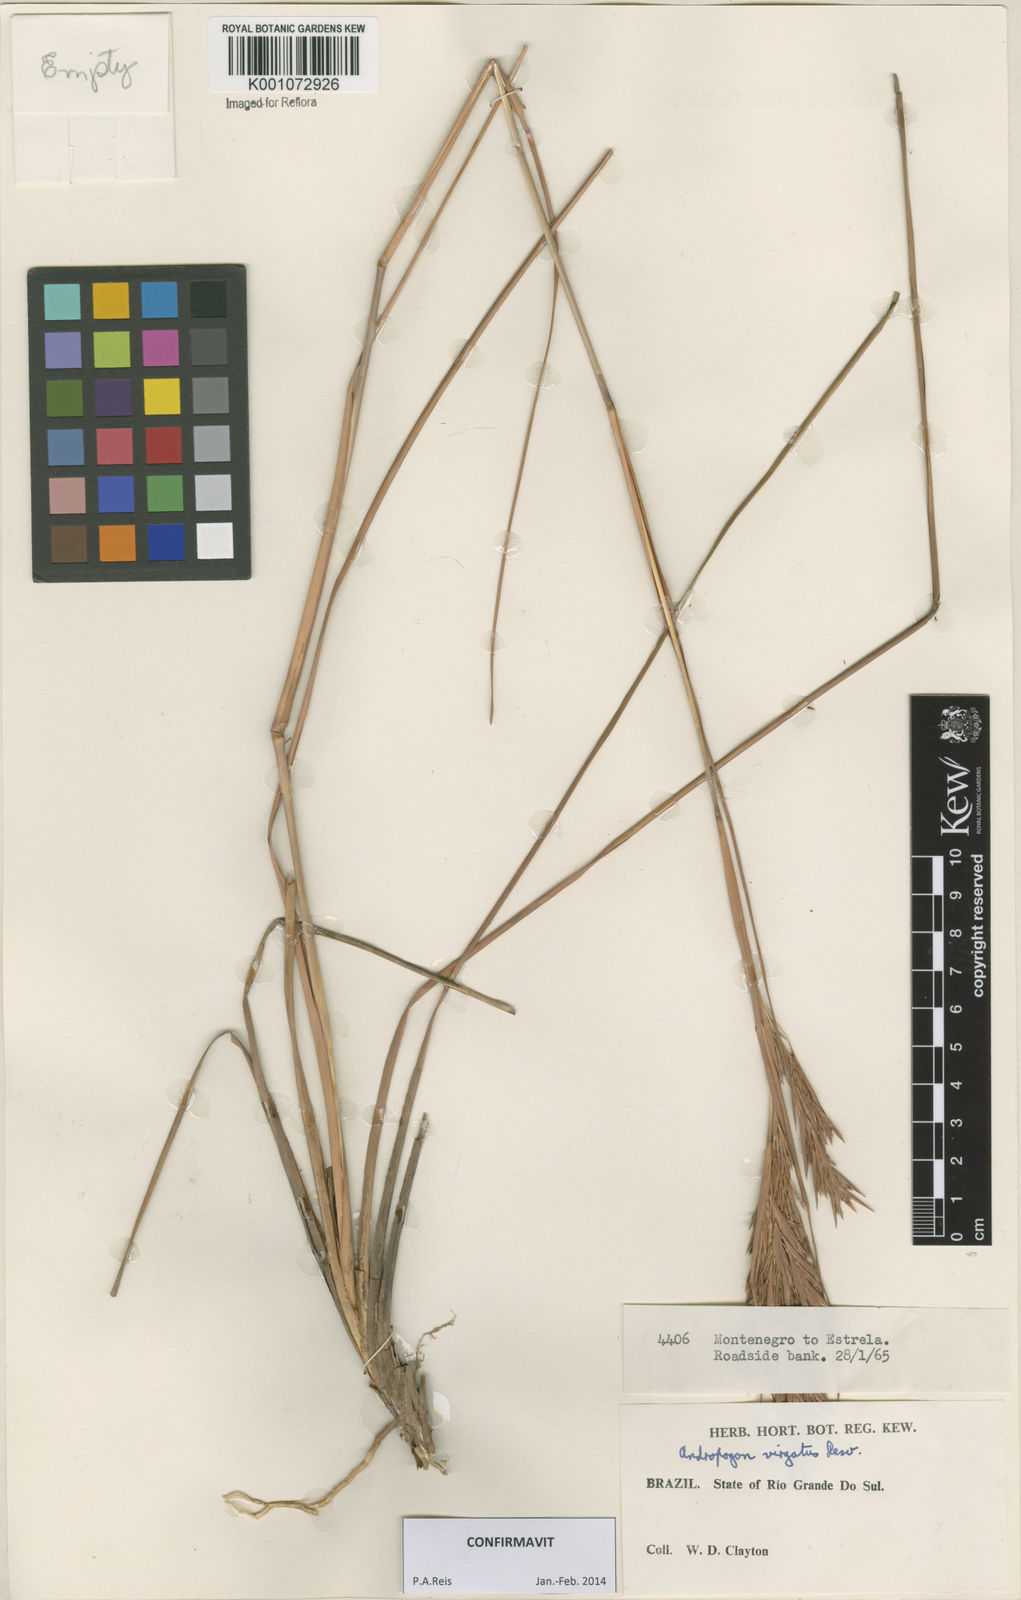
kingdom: Plantae
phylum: Tracheophyta
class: Liliopsida
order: Poales
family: Poaceae
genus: Andropogon
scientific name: Andropogon virgatus
